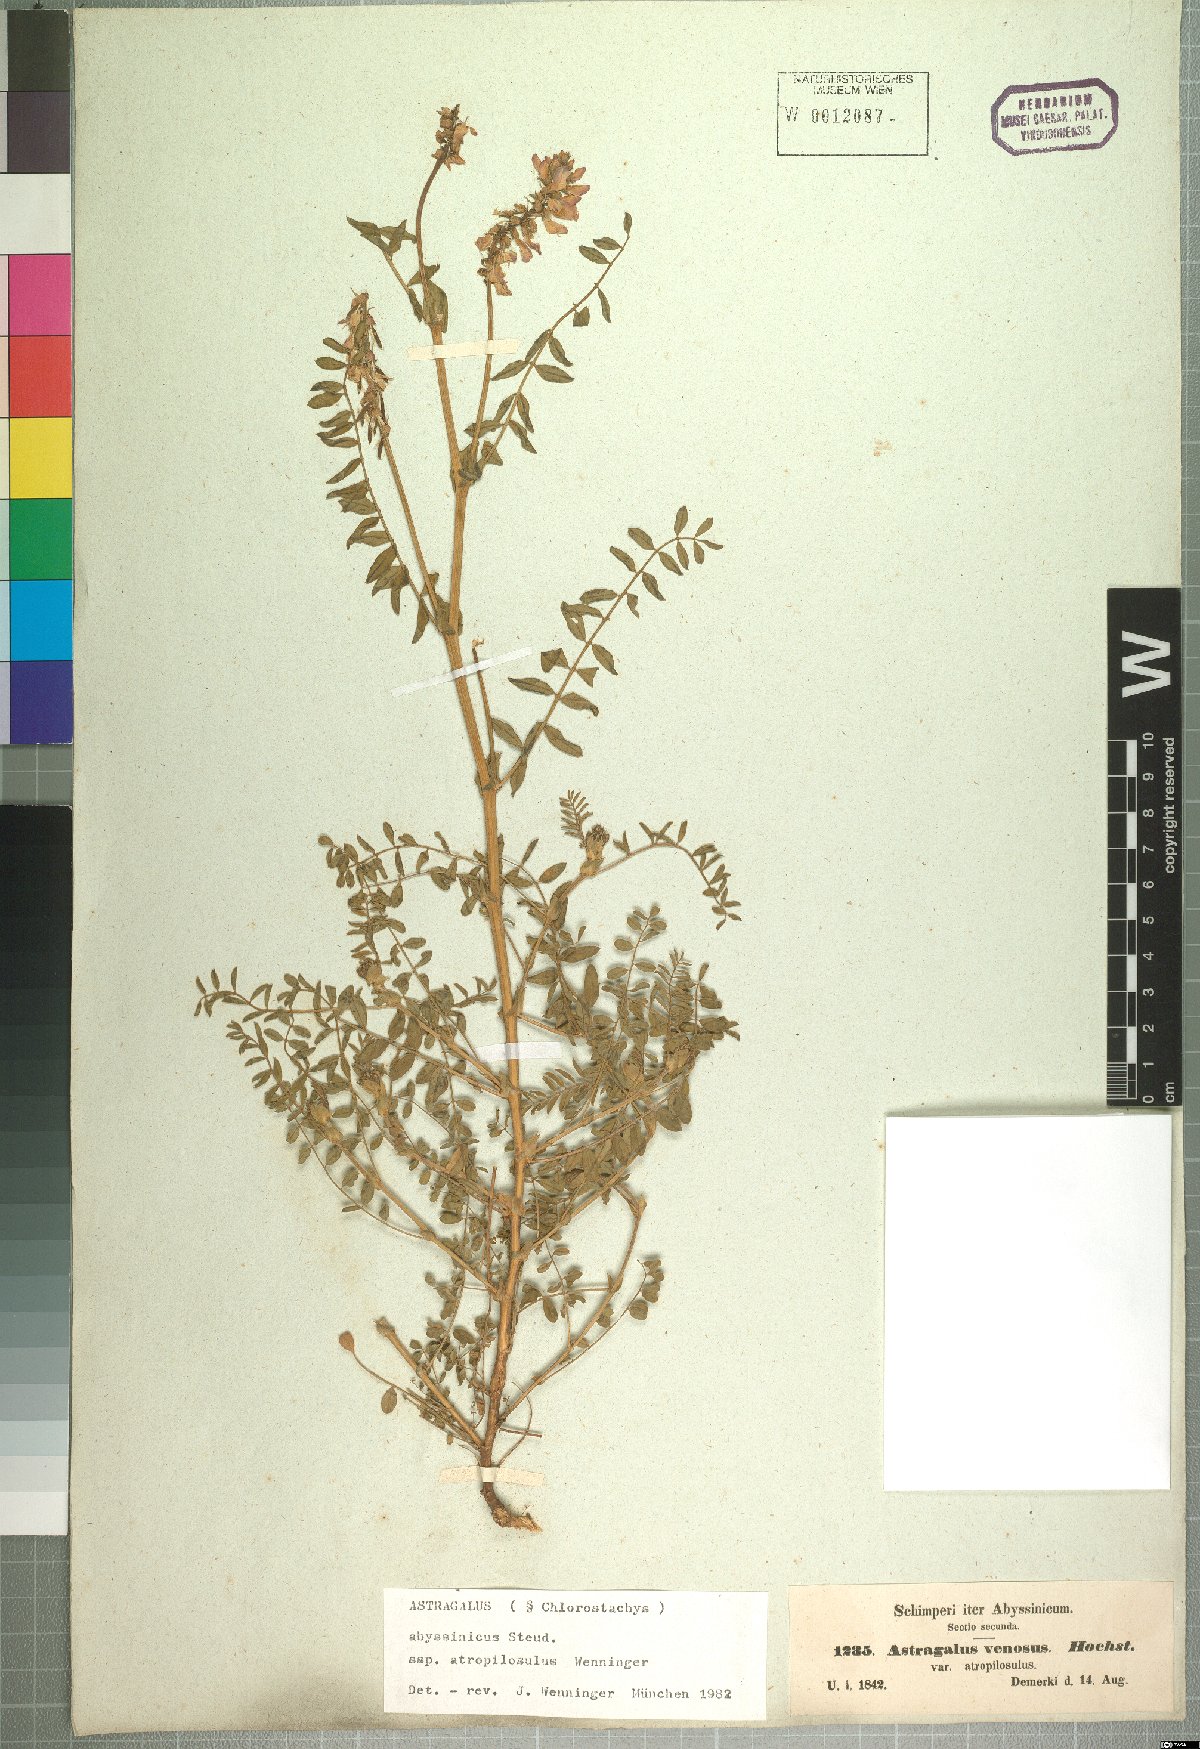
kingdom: Plantae
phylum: Tracheophyta
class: Magnoliopsida
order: Fabales
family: Fabaceae
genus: Astragalus
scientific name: Astragalus atropilosulus
